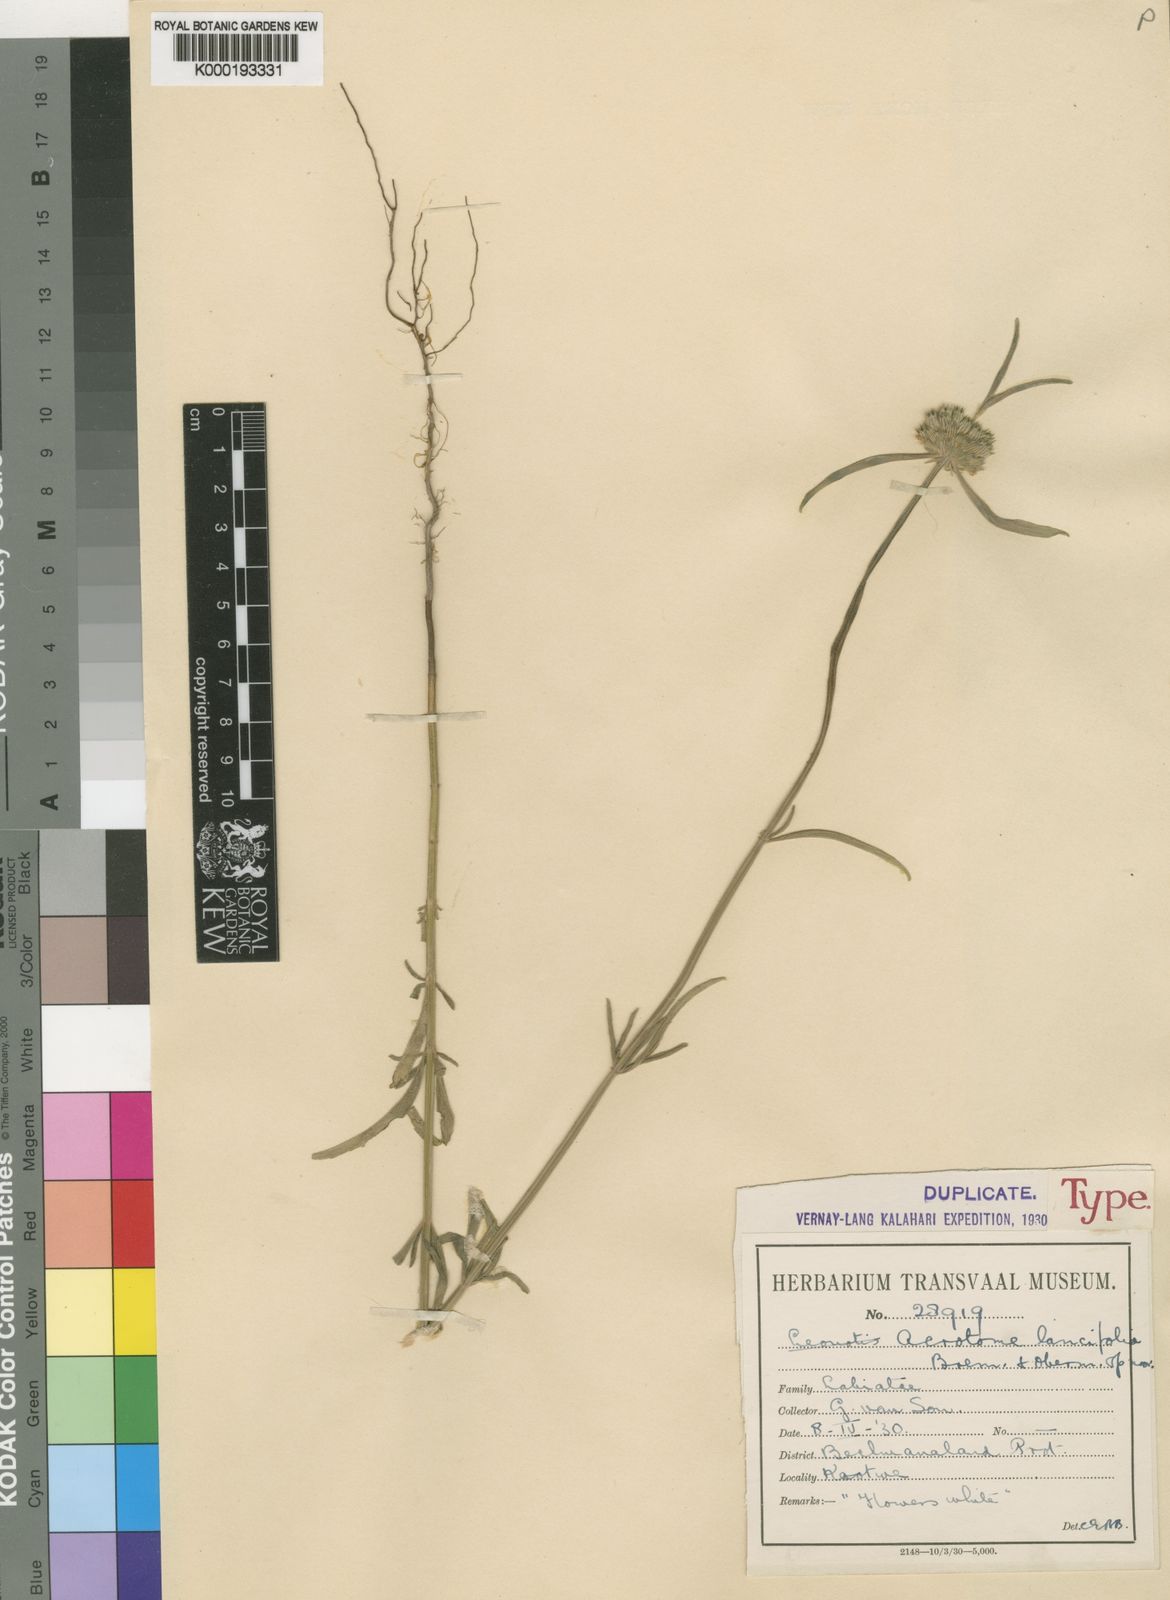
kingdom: Plantae
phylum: Tracheophyta
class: Magnoliopsida
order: Lamiales
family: Lamiaceae
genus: Acrotome
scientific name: Acrotome angustifolia
